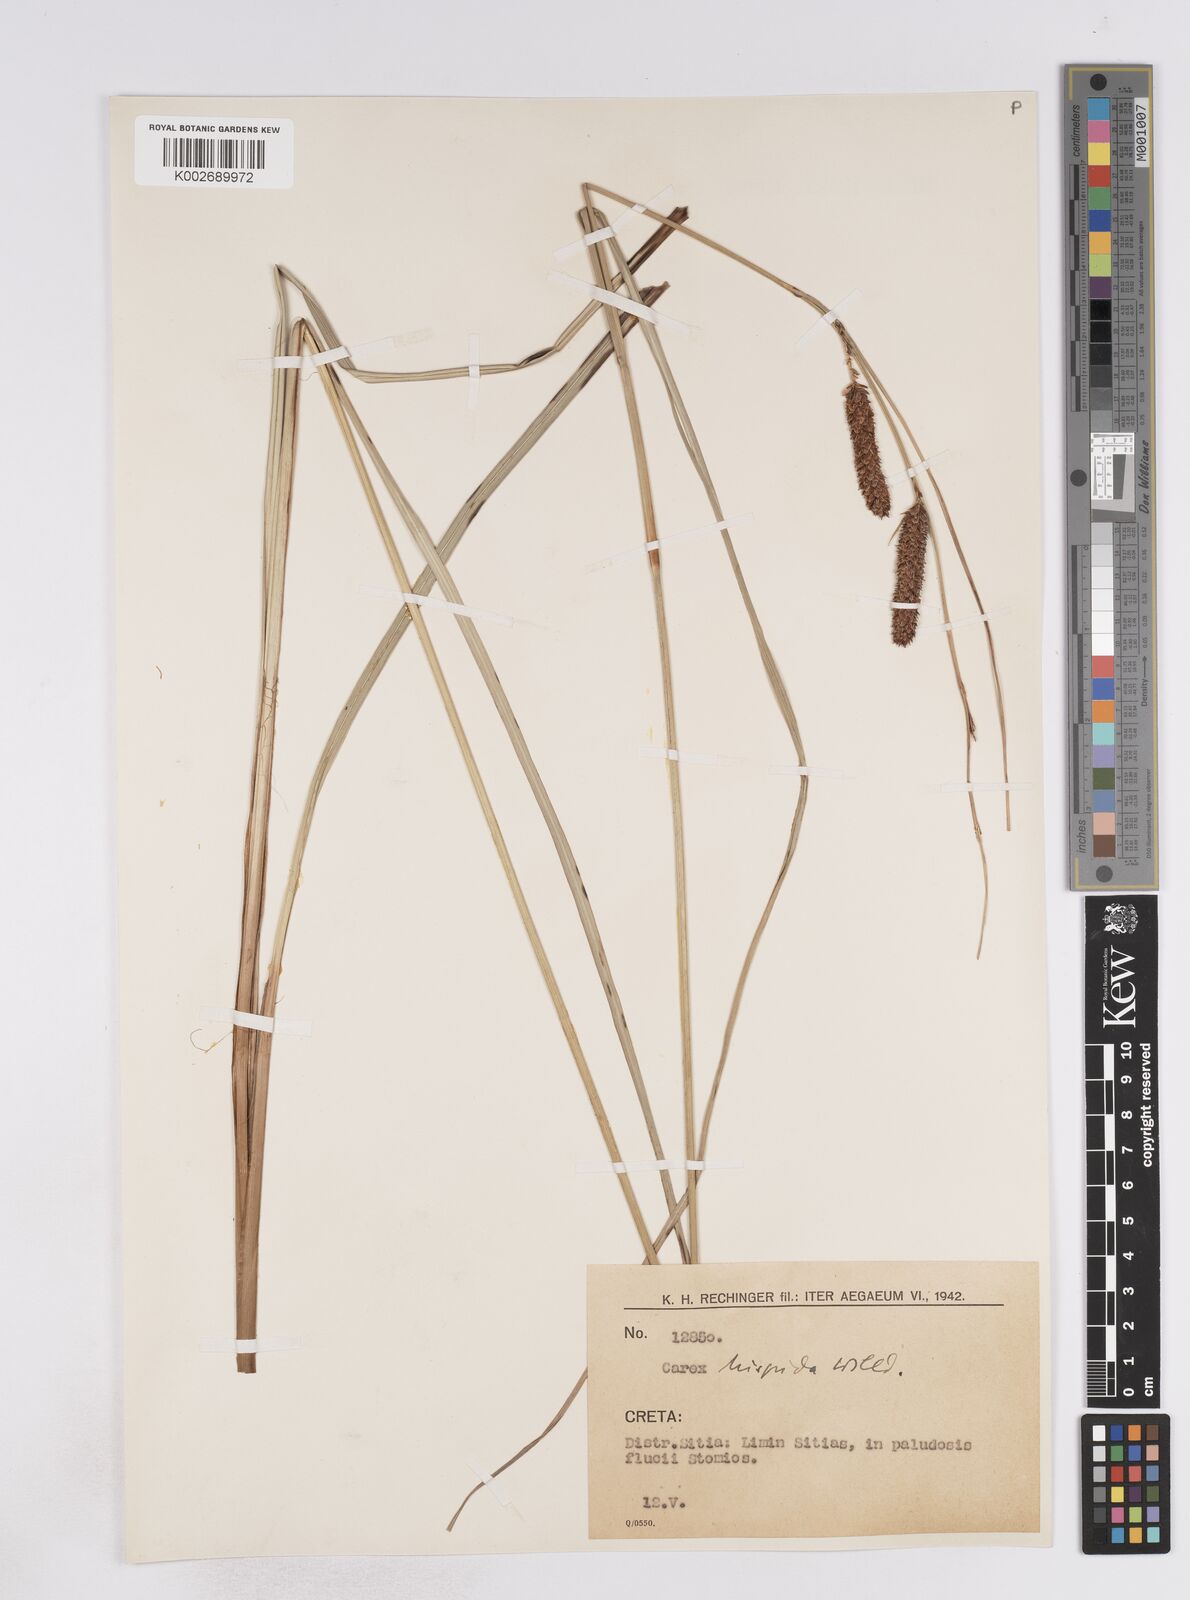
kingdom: Plantae
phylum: Tracheophyta
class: Liliopsida
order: Poales
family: Cyperaceae
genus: Carex
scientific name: Carex hispida
